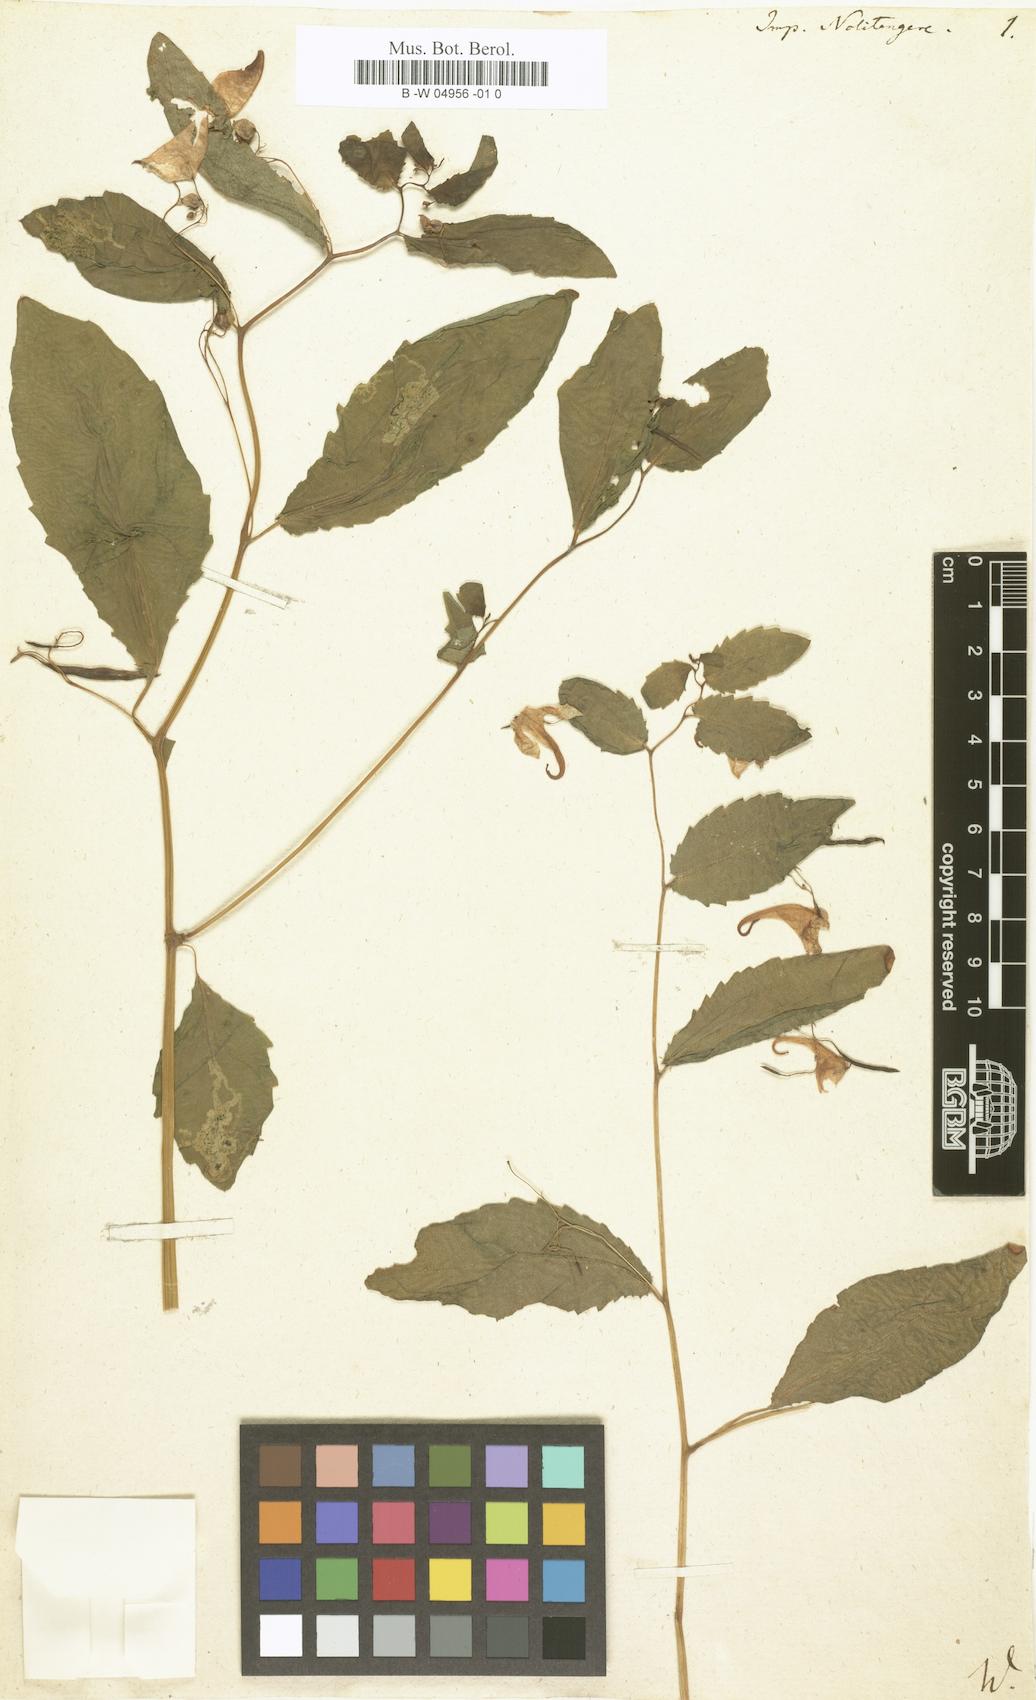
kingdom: Plantae
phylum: Tracheophyta
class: Magnoliopsida
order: Ericales
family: Balsaminaceae
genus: Impatiens
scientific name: Impatiens noli-tangere
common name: Touch-me-not balsam
